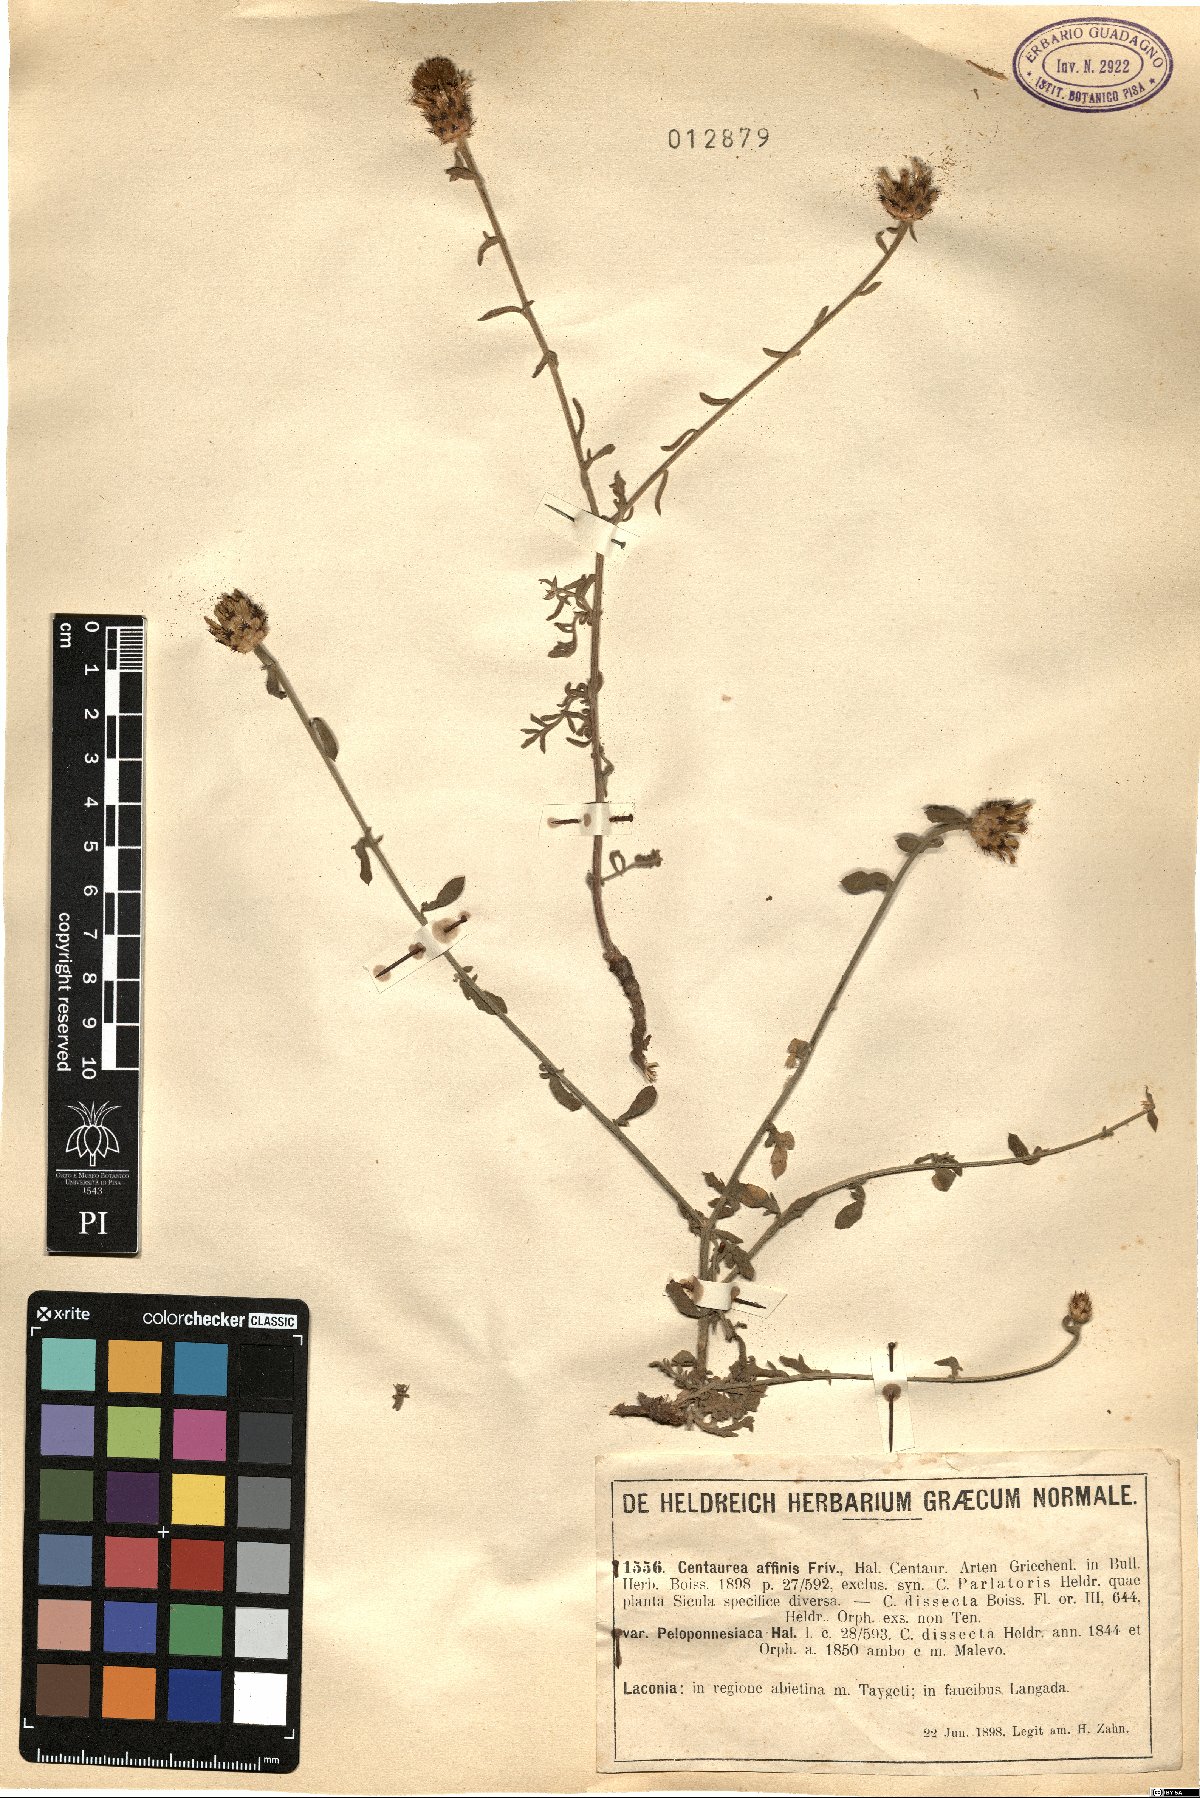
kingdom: Plantae
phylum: Tracheophyta
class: Magnoliopsida
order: Asterales
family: Asteraceae
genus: Centaurea
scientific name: Centaurea affinis
